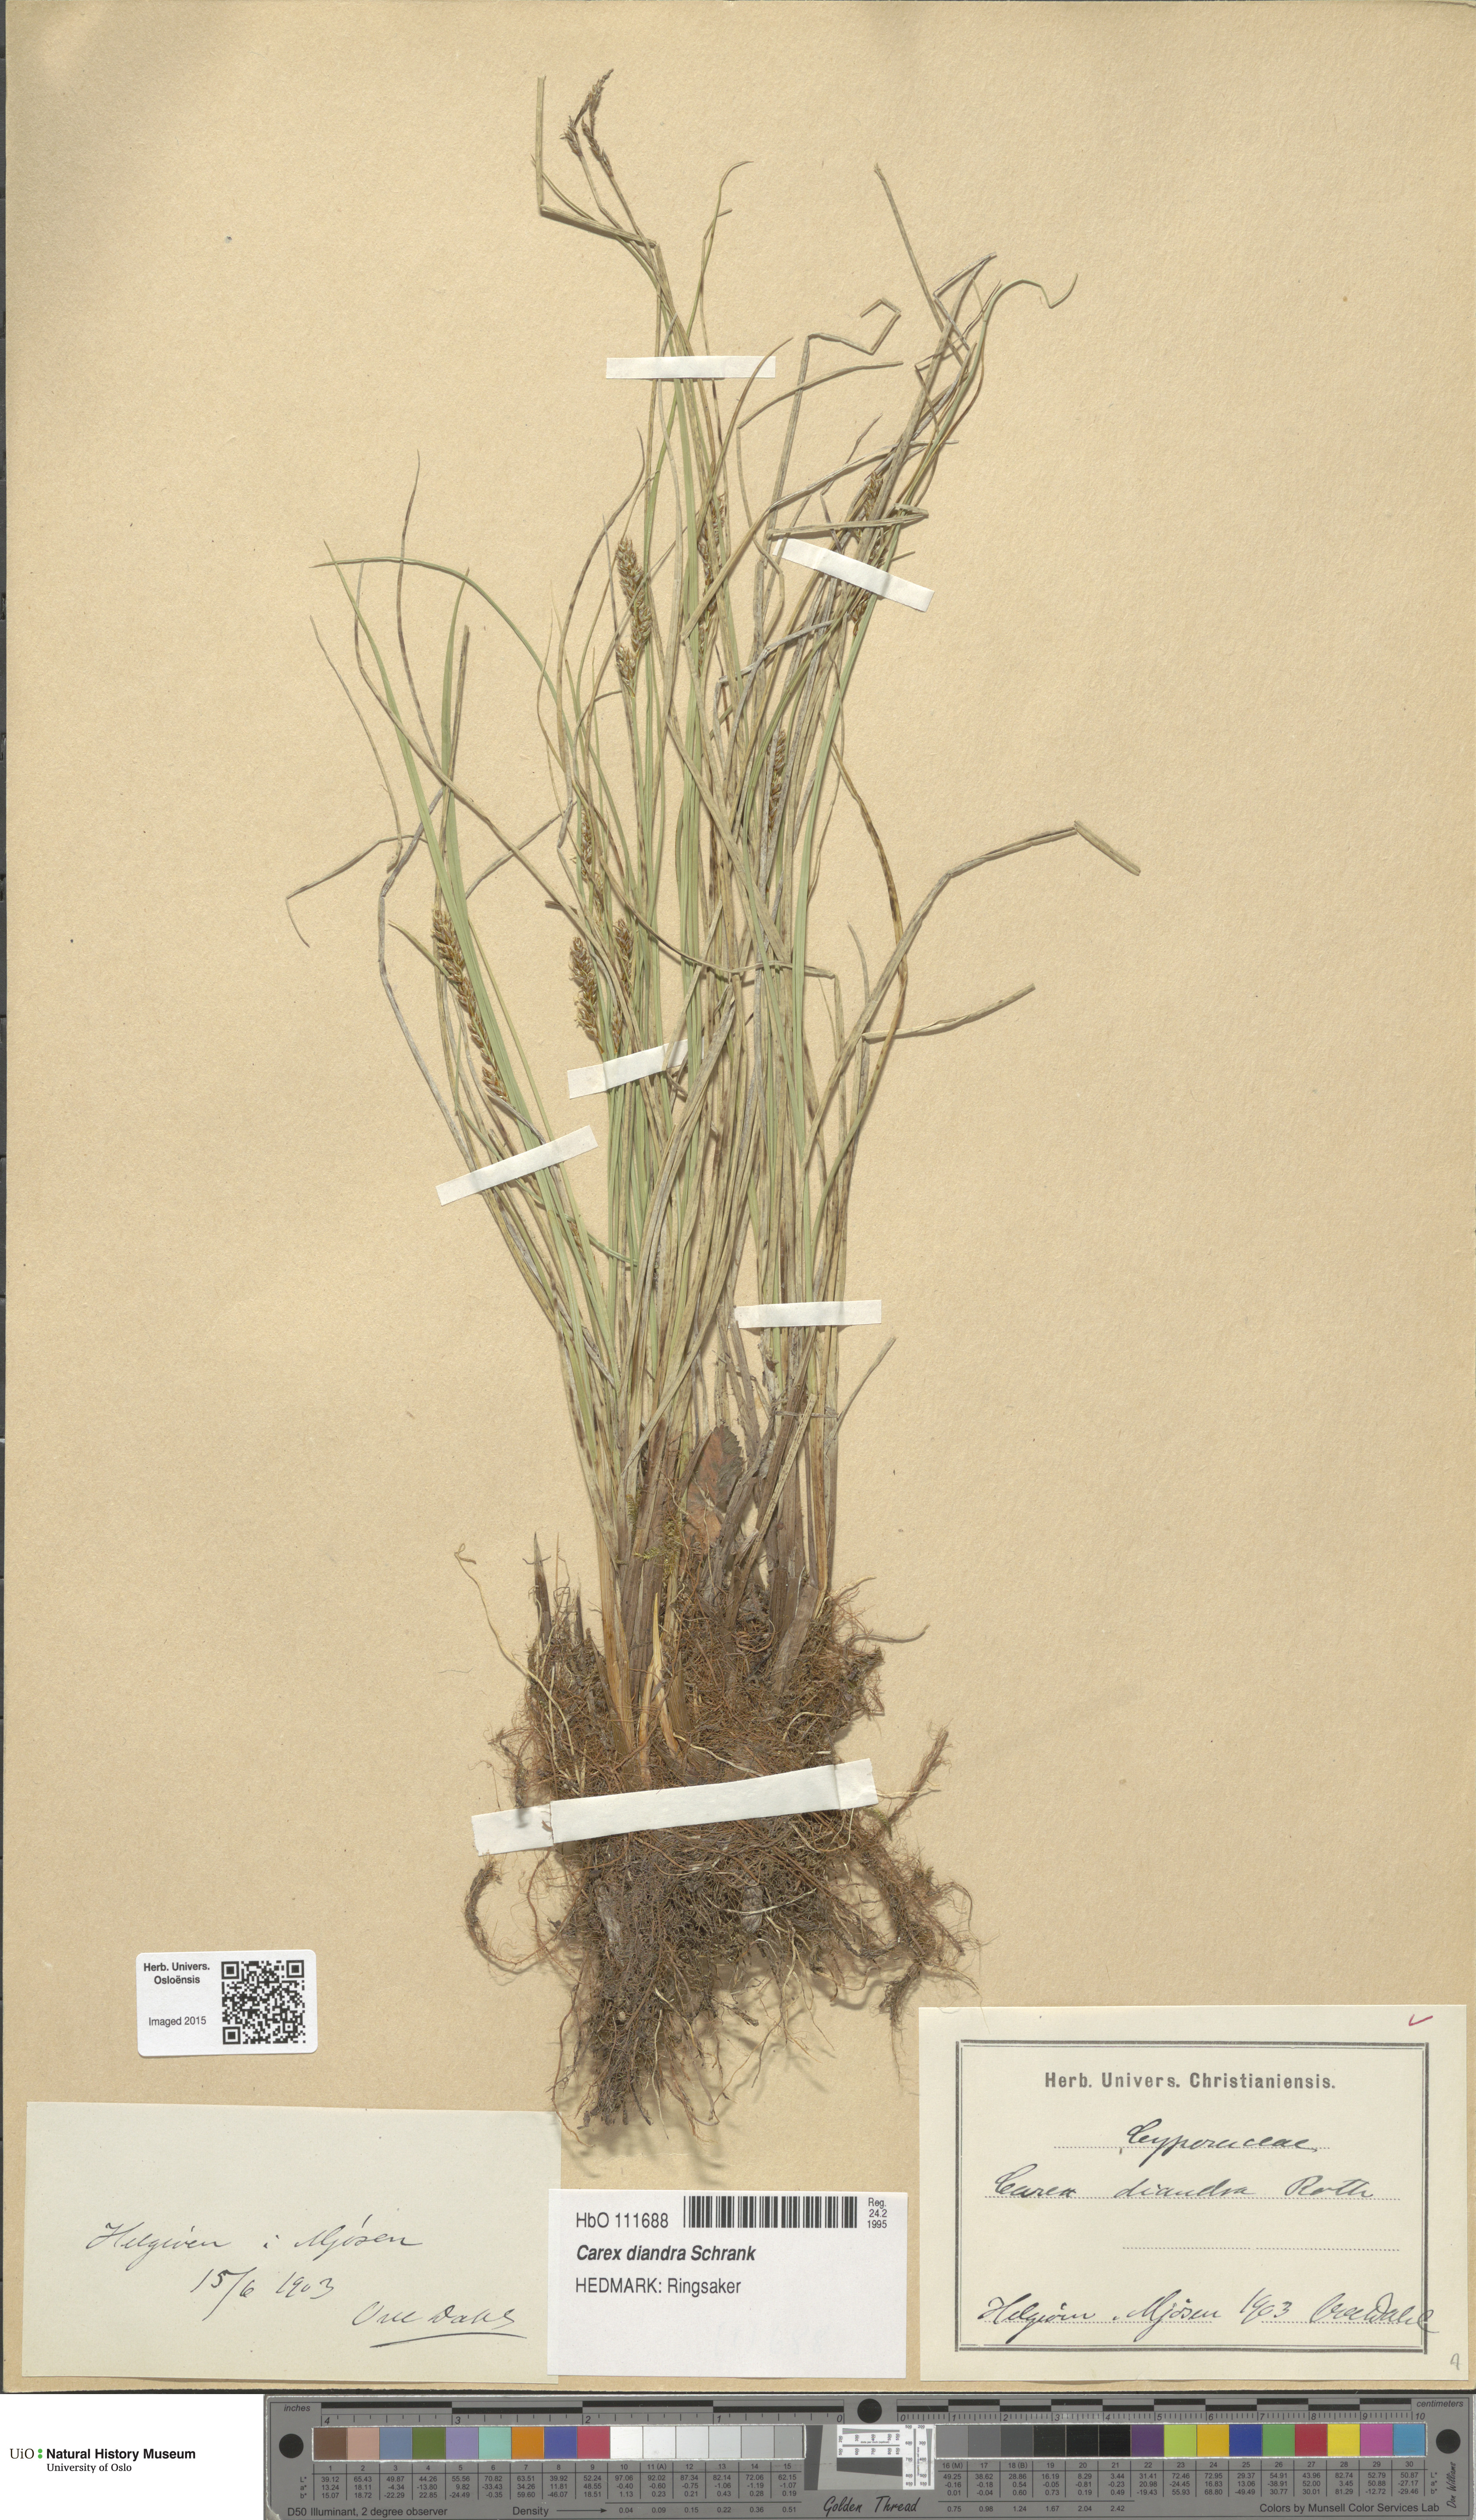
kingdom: Plantae
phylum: Tracheophyta
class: Liliopsida
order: Poales
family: Cyperaceae
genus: Carex
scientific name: Carex diandra
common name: Lesser tussock-sedge
